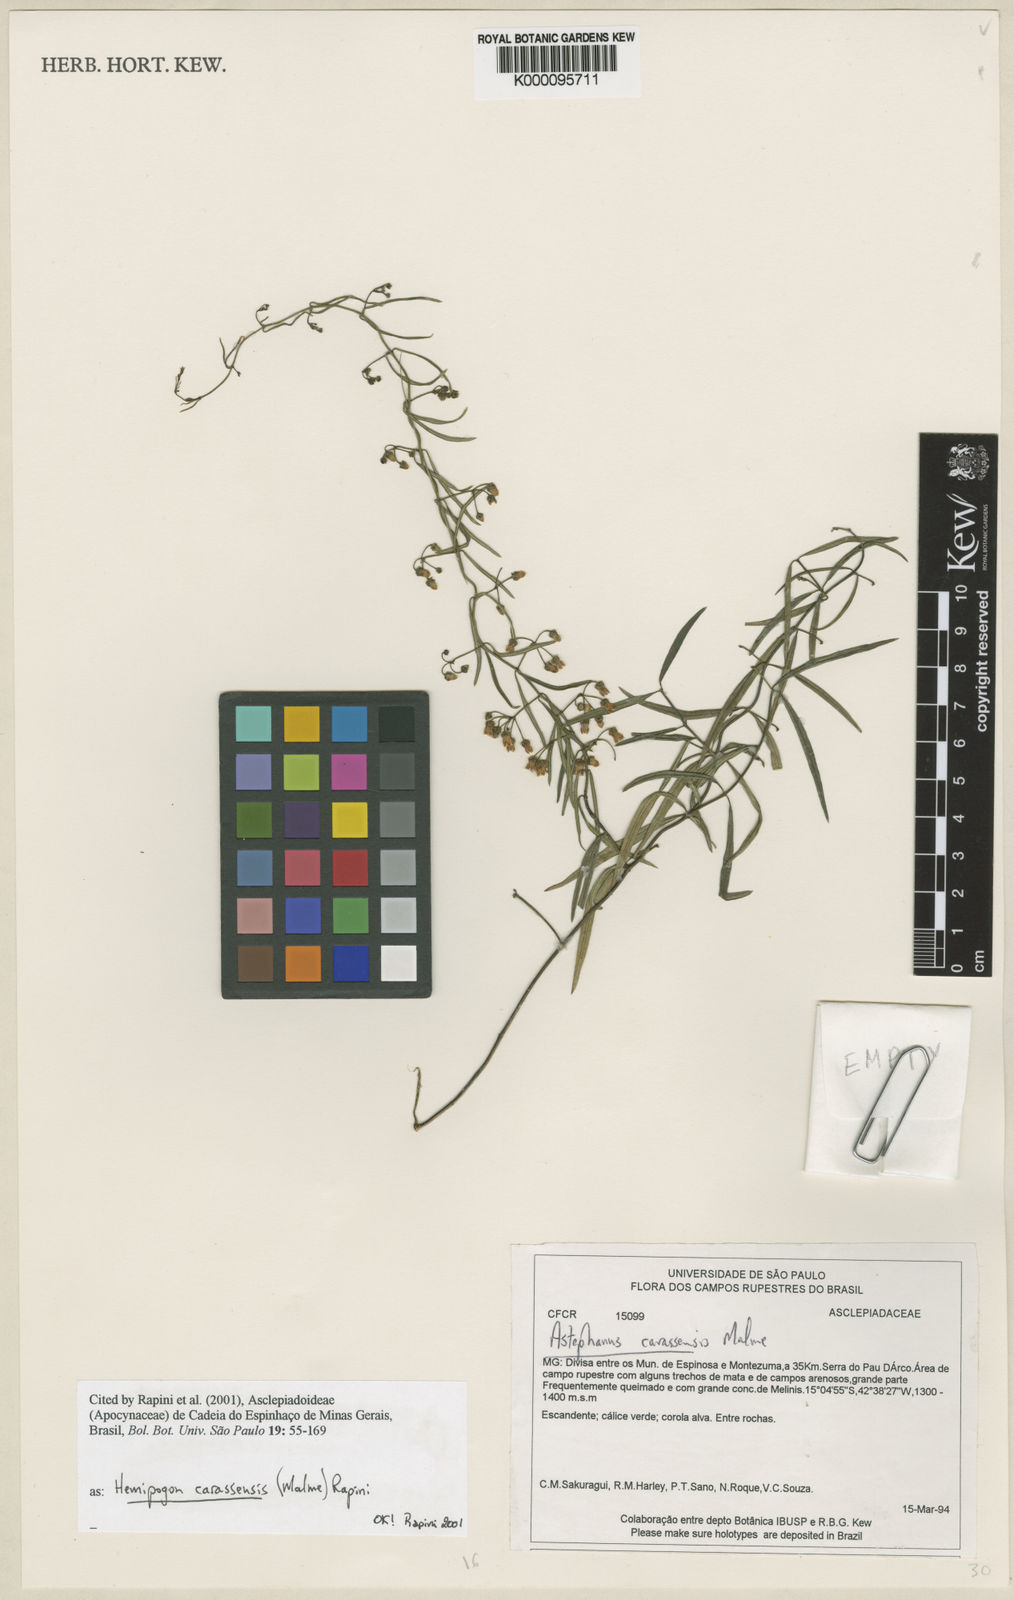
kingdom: Plantae
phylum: Tracheophyta
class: Magnoliopsida
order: Gentianales
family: Apocynaceae
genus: Morilloa
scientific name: Morilloa carassensis
